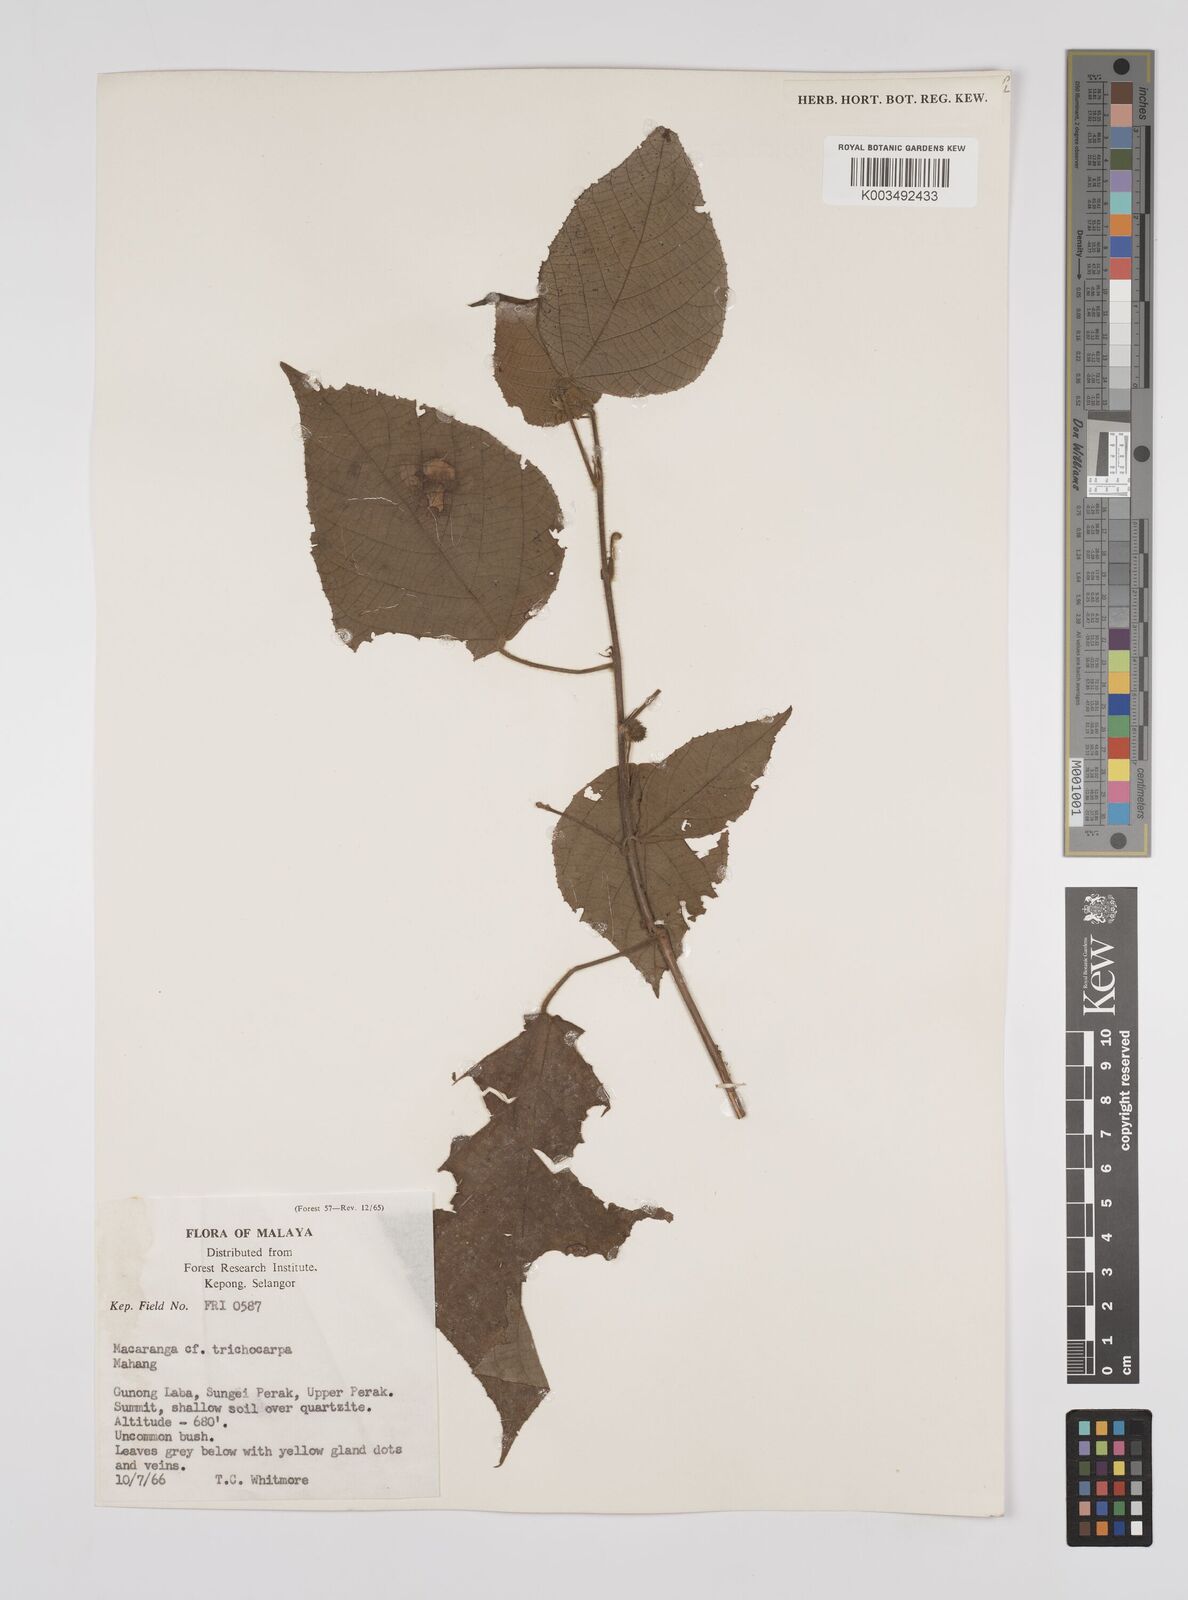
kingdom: Plantae
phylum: Tracheophyta
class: Magnoliopsida
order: Malpighiales
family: Euphorbiaceae
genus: Macaranga
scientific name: Macaranga trichocarpa
